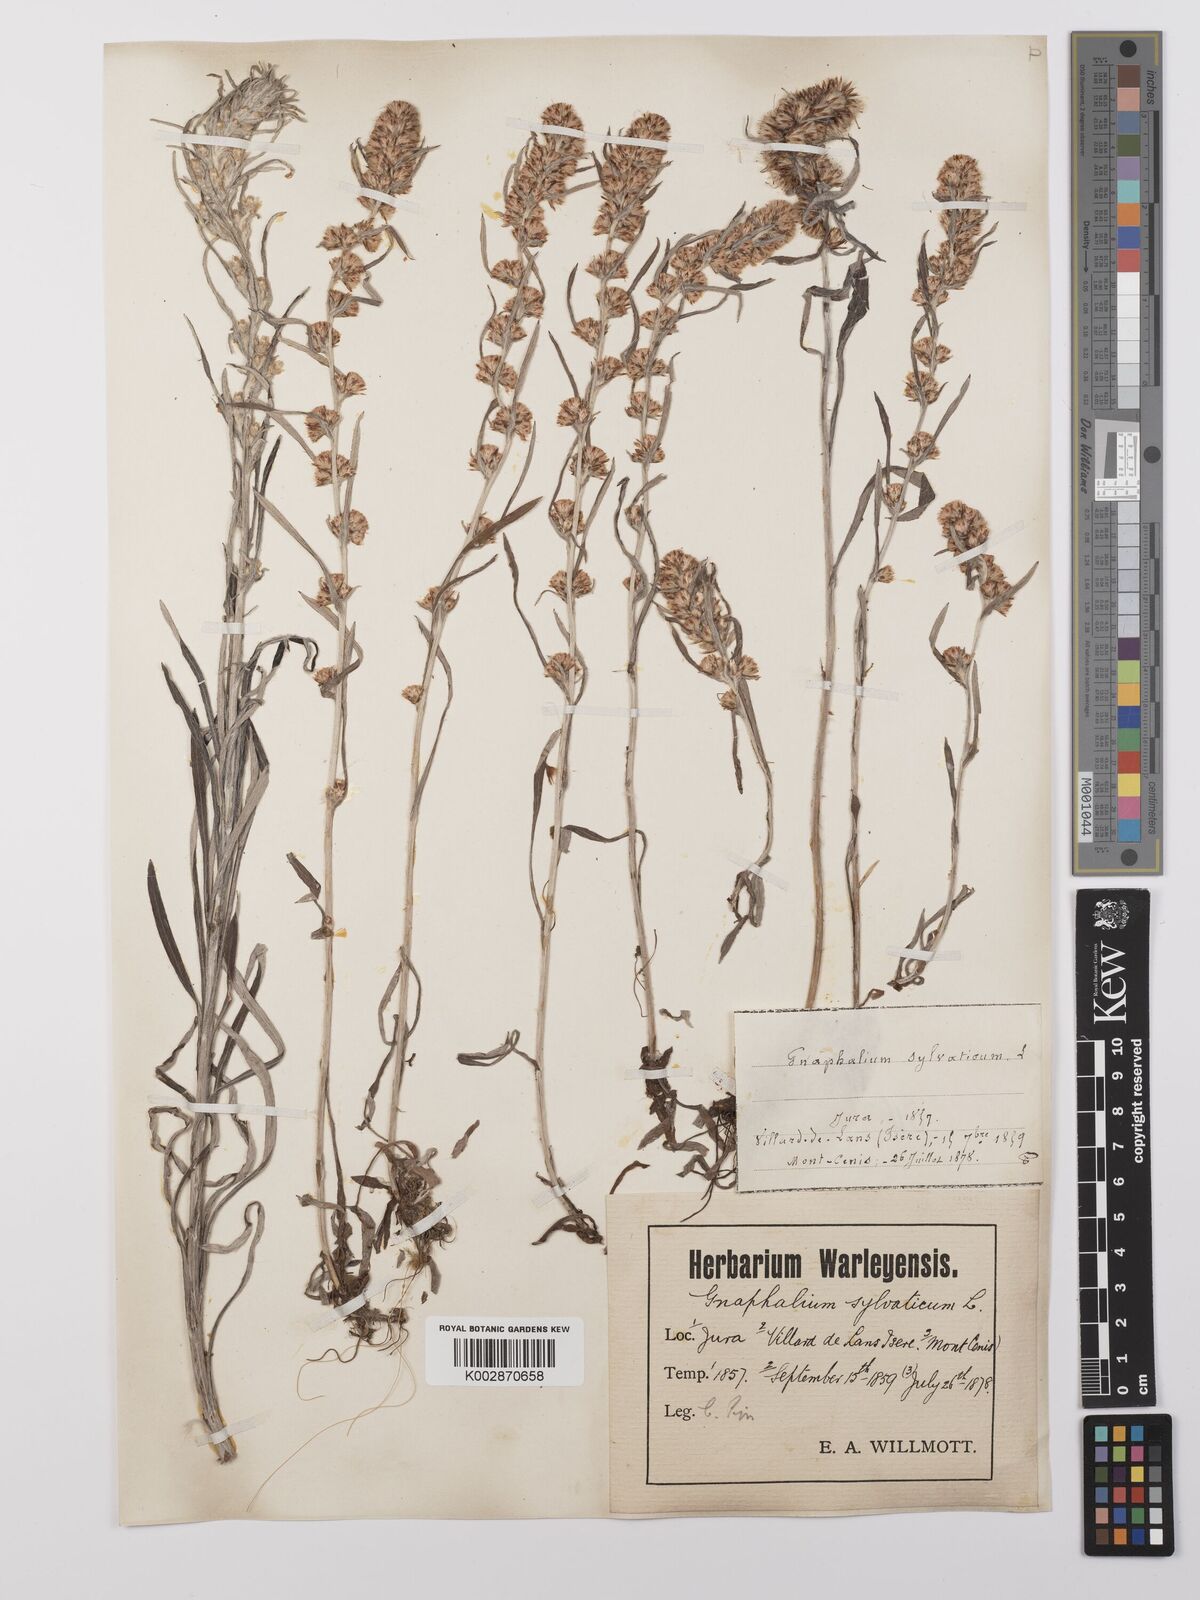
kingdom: Plantae
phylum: Tracheophyta
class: Magnoliopsida
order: Asterales
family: Asteraceae
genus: Omalotheca
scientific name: Omalotheca sylvatica
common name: Heath cudweed
